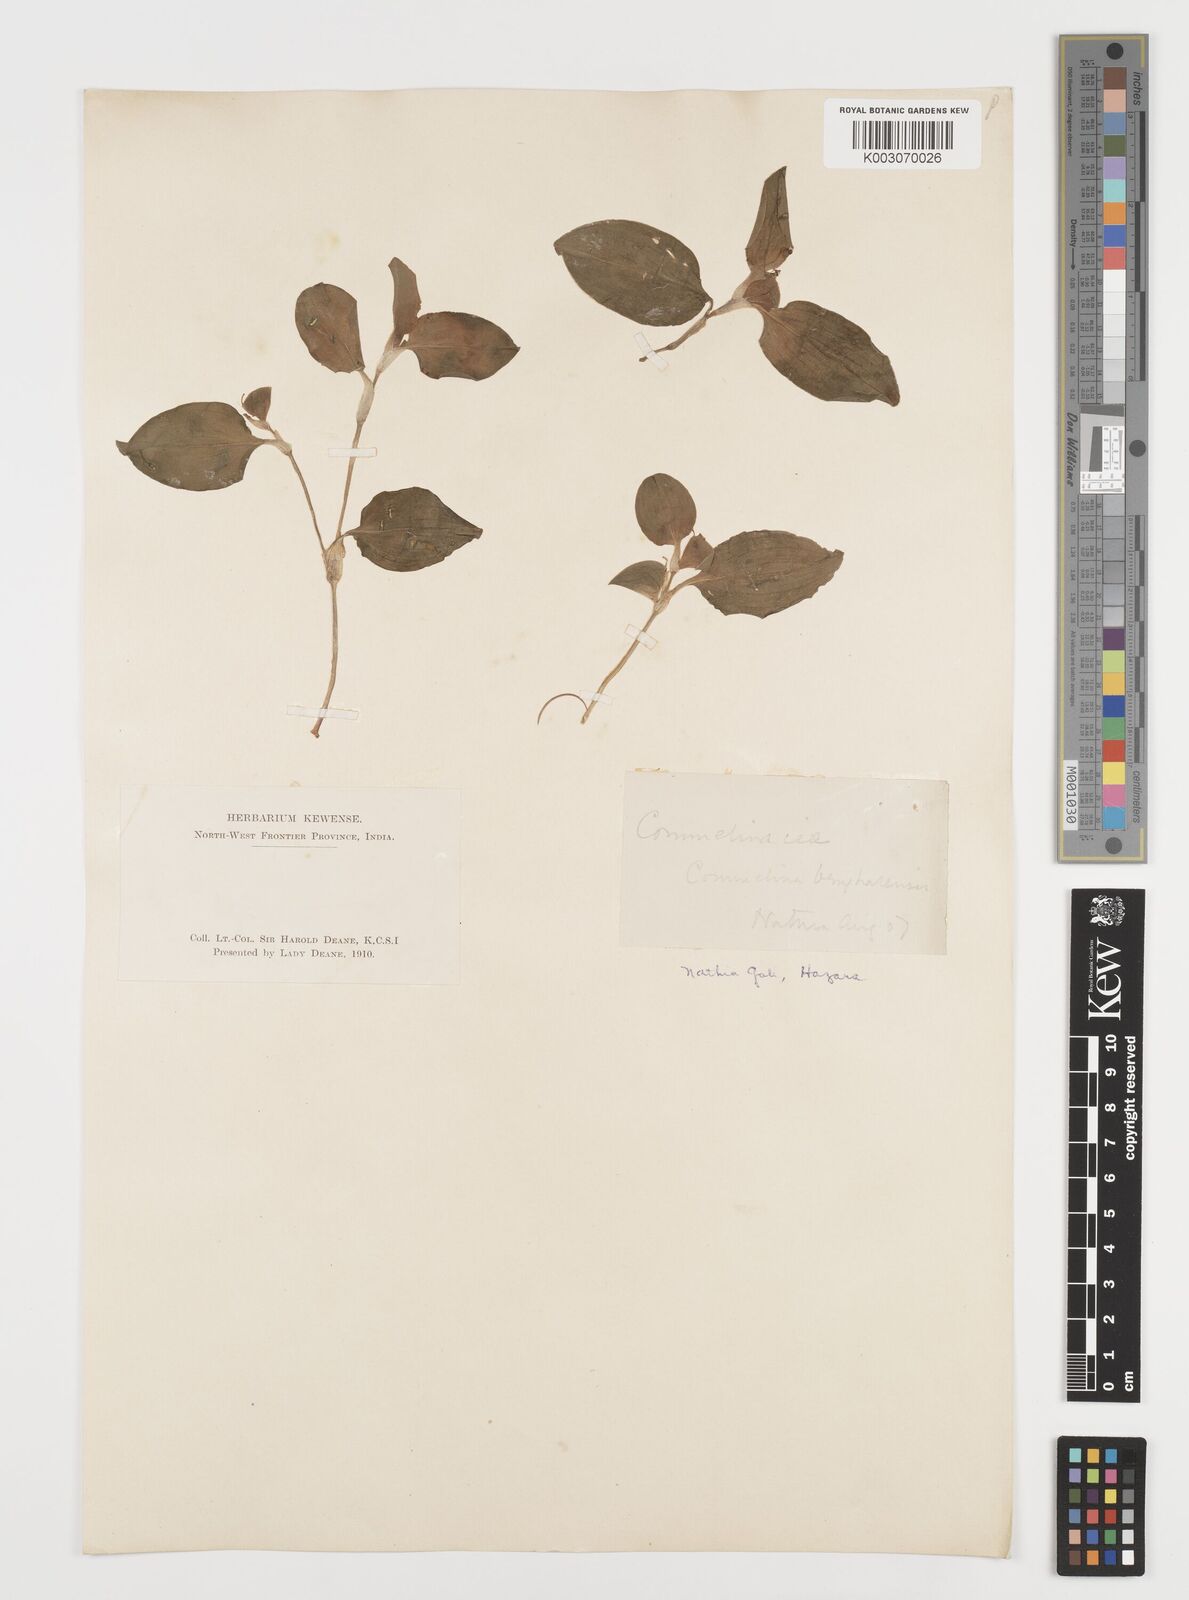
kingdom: Plantae
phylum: Tracheophyta
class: Liliopsida
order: Commelinales
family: Commelinaceae
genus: Commelina
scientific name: Commelina
